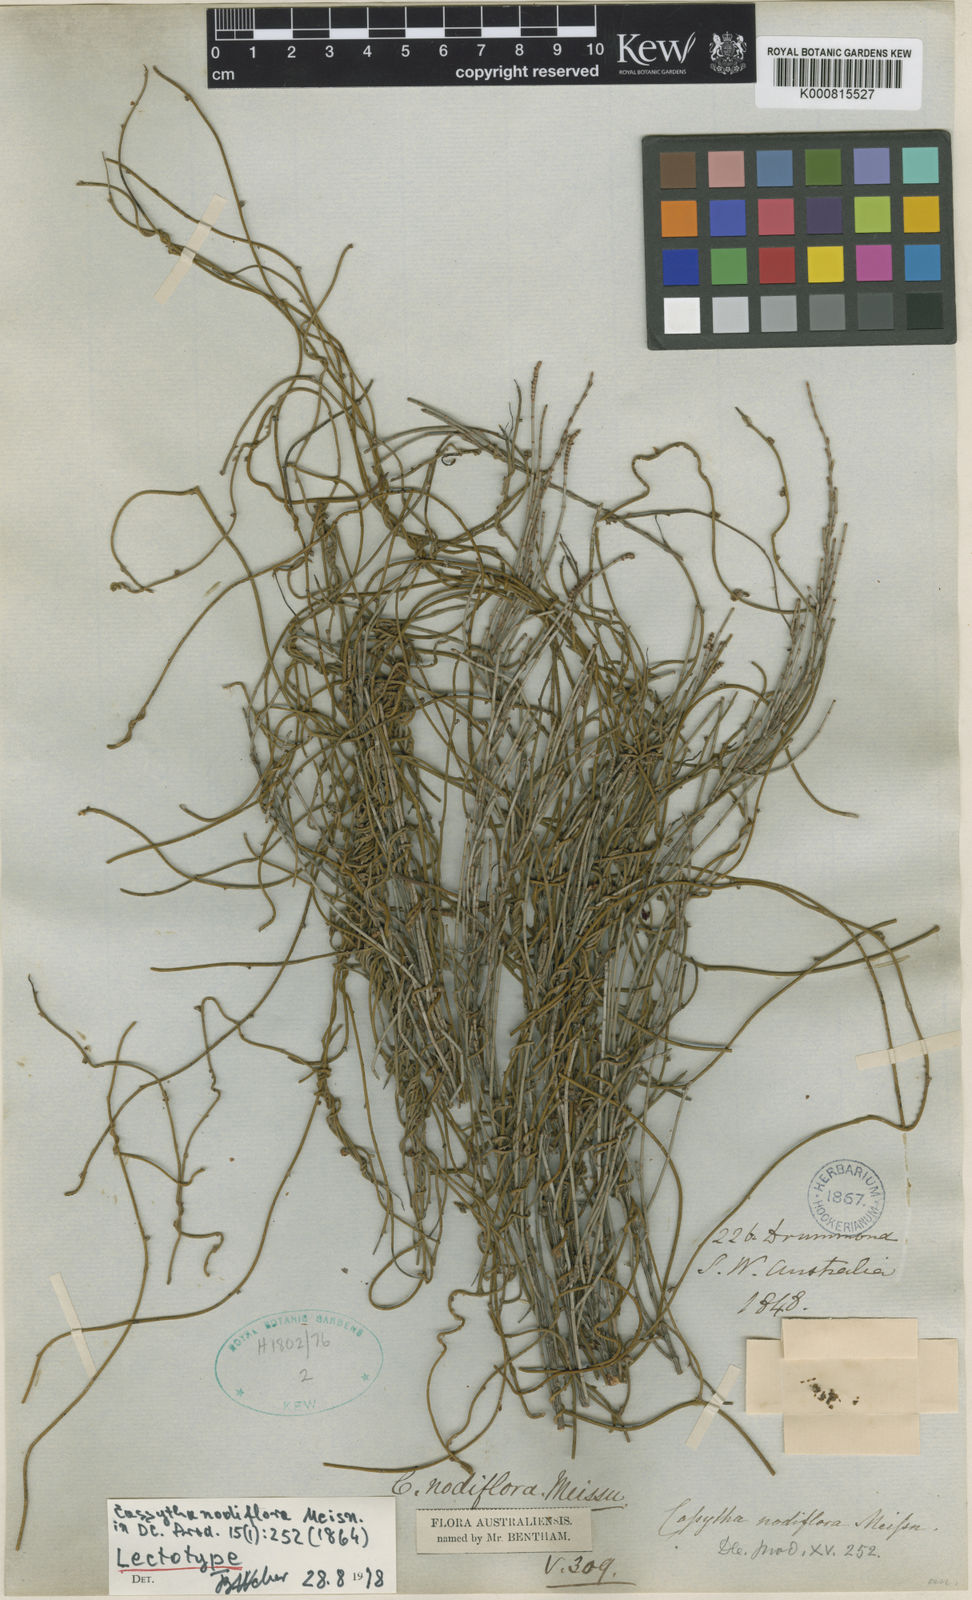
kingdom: Plantae
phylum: Tracheophyta
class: Magnoliopsida
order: Laurales
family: Lauraceae
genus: Cassytha
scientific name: Cassytha nodiflora
